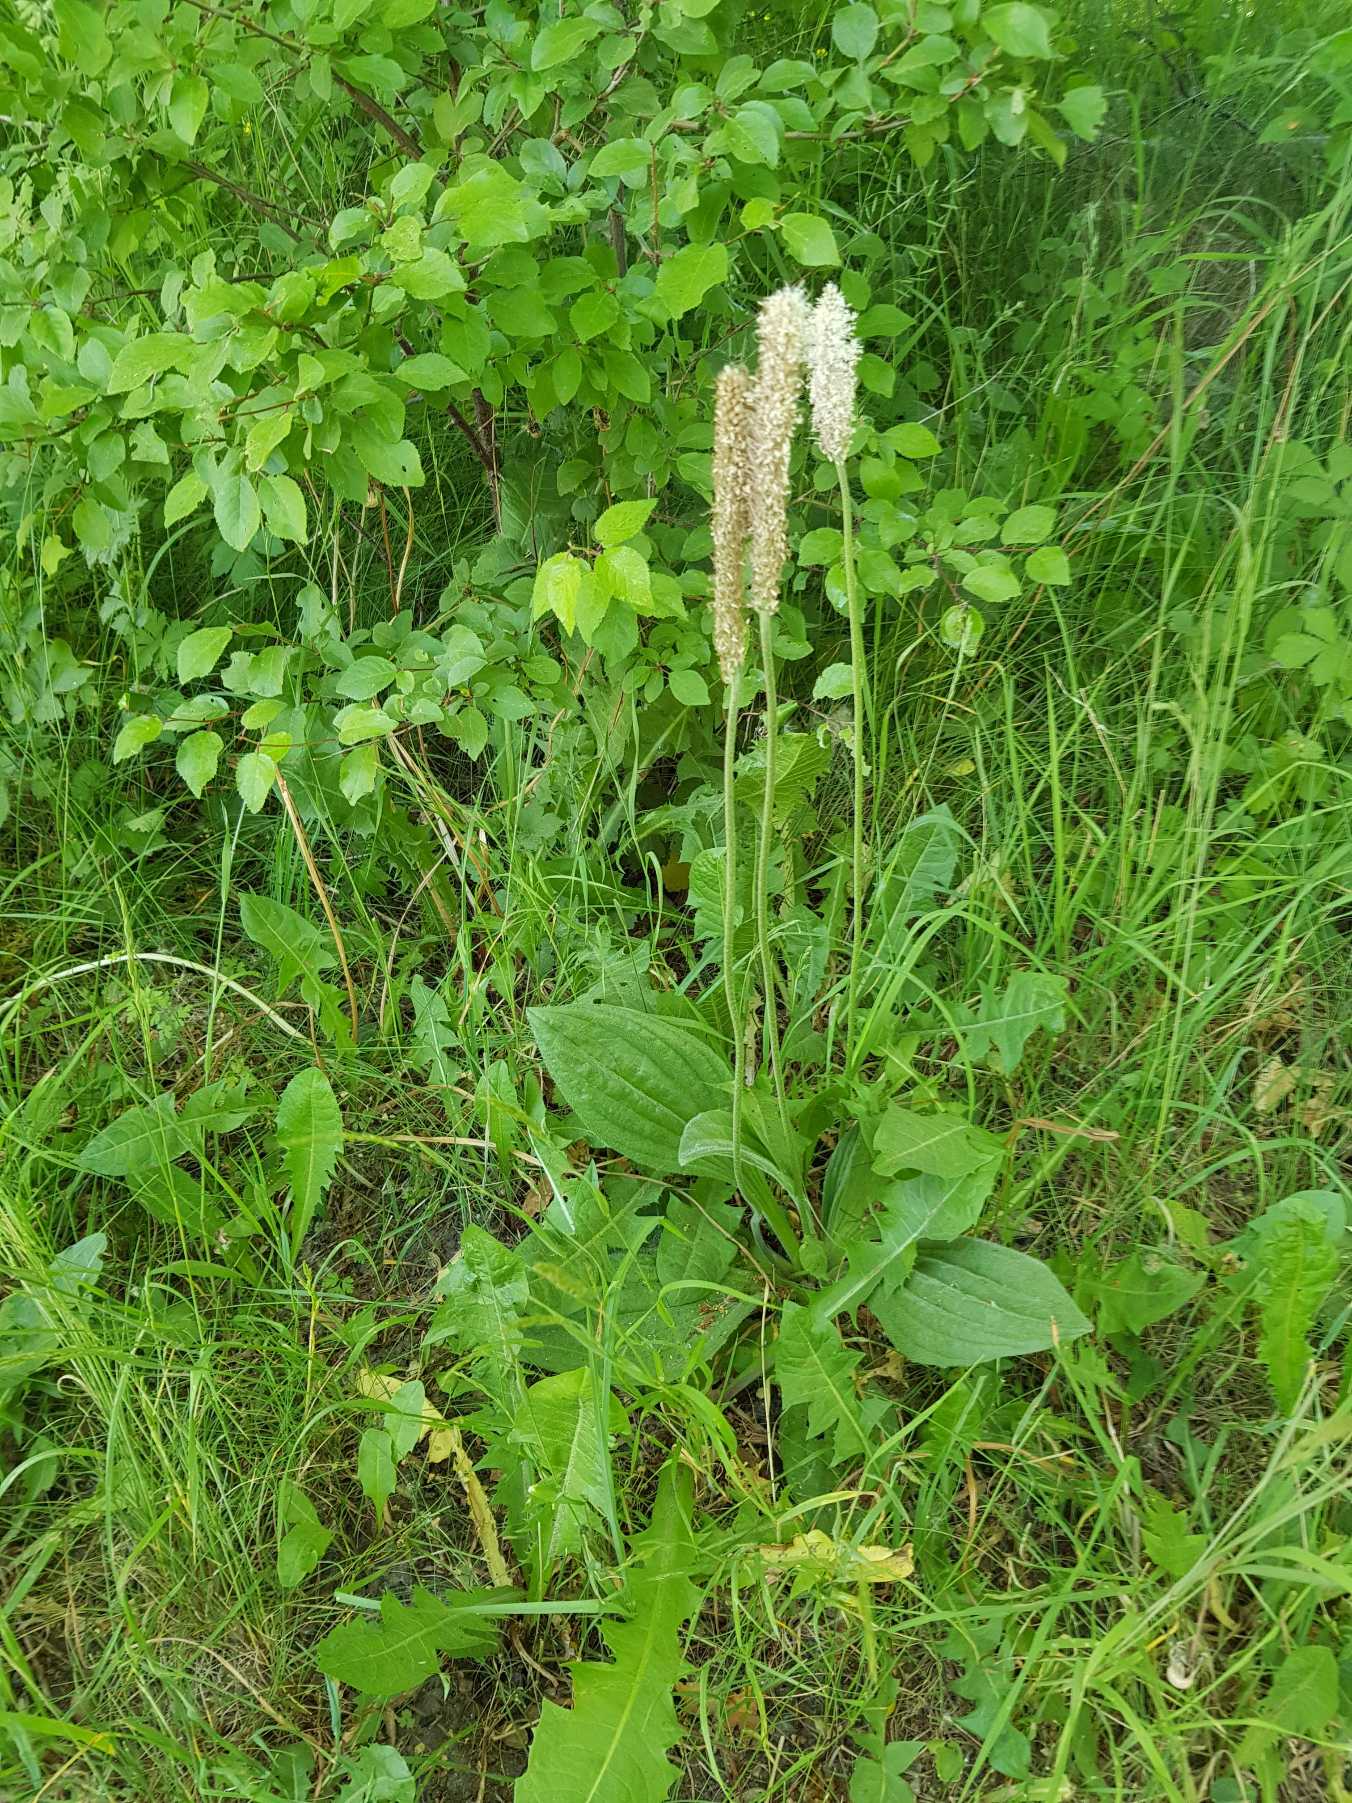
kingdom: Plantae
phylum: Tracheophyta
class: Magnoliopsida
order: Lamiales
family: Plantaginaceae
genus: Plantago
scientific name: Plantago media
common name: Dunet vejbred
